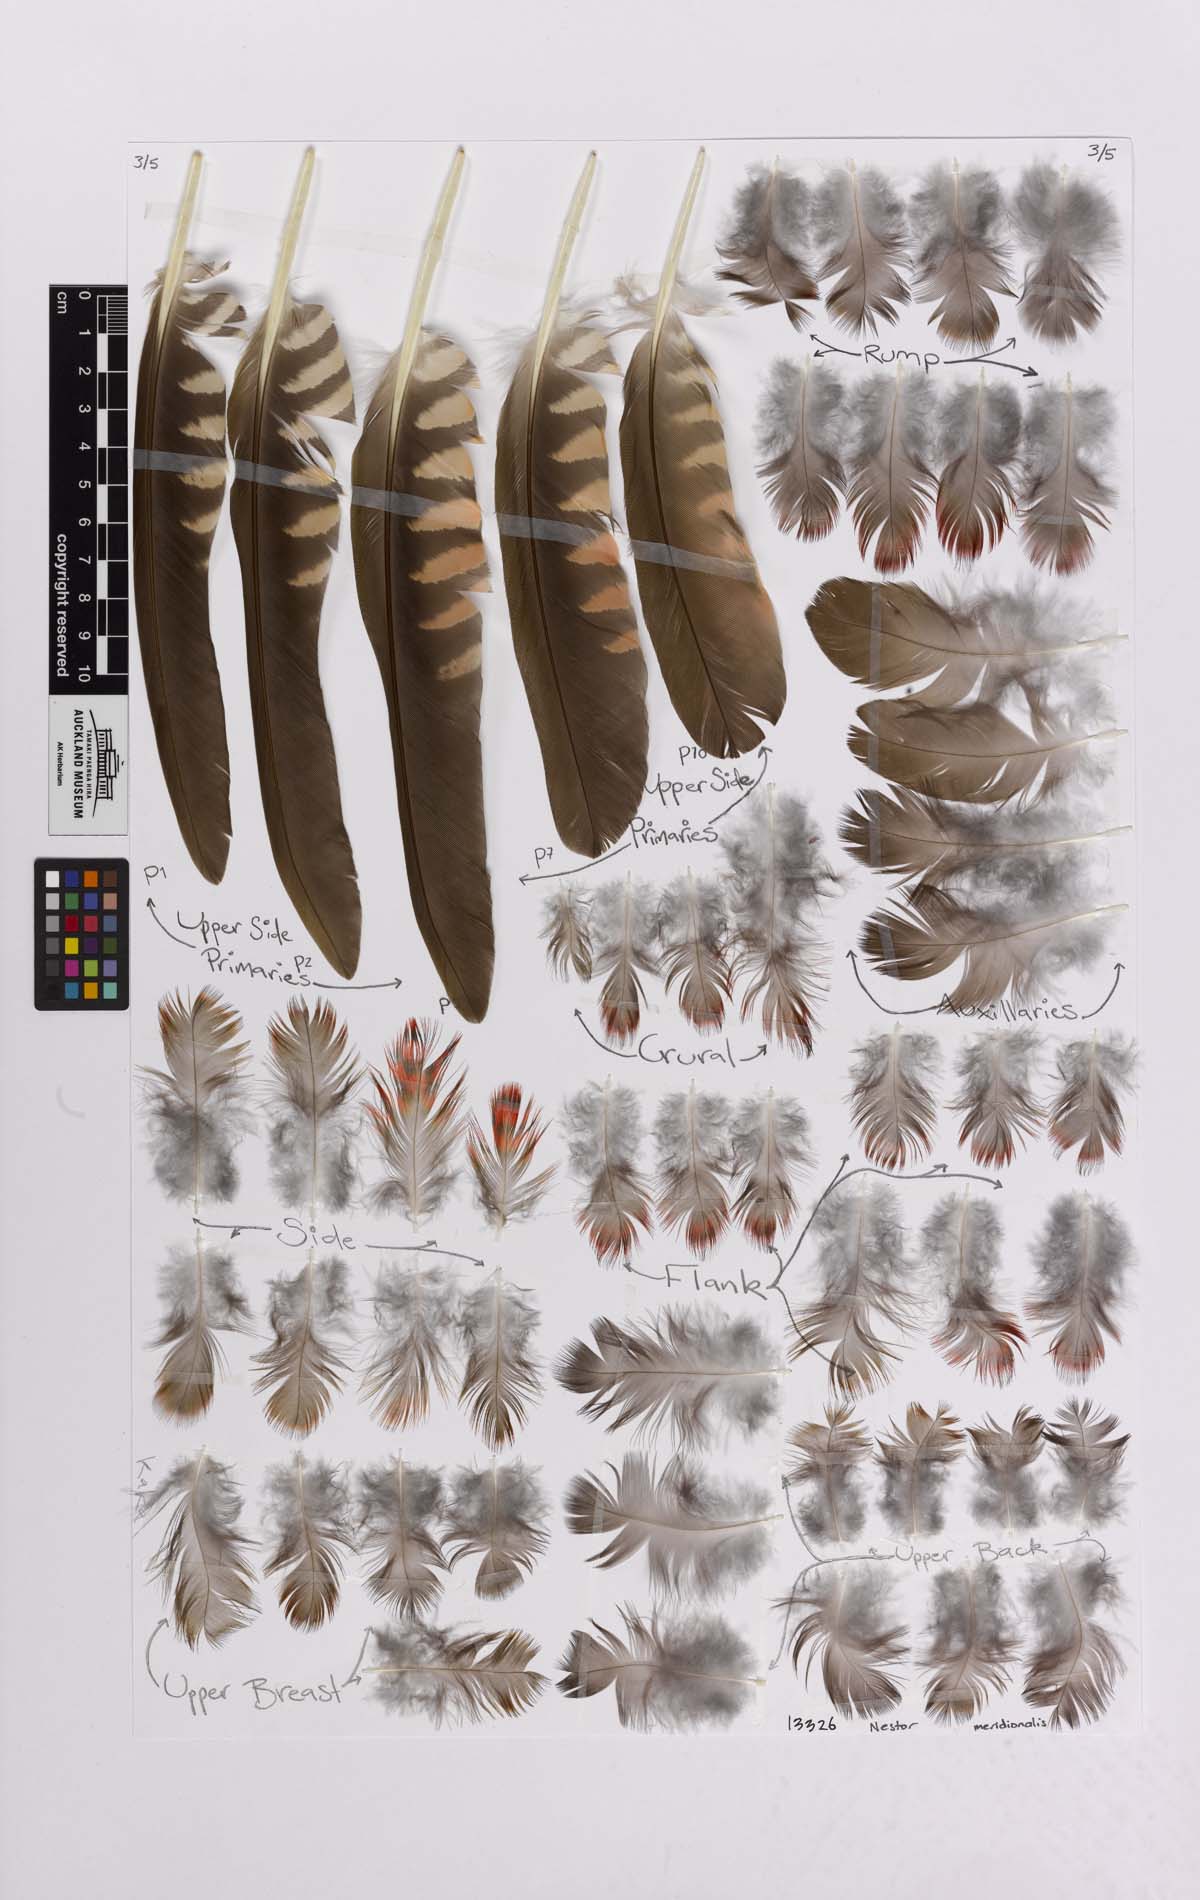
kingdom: Animalia
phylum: Chordata
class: Aves
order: Psittaciformes
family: Psittacidae
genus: Nestor
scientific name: Nestor meridionalis
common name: New zealand kaka
